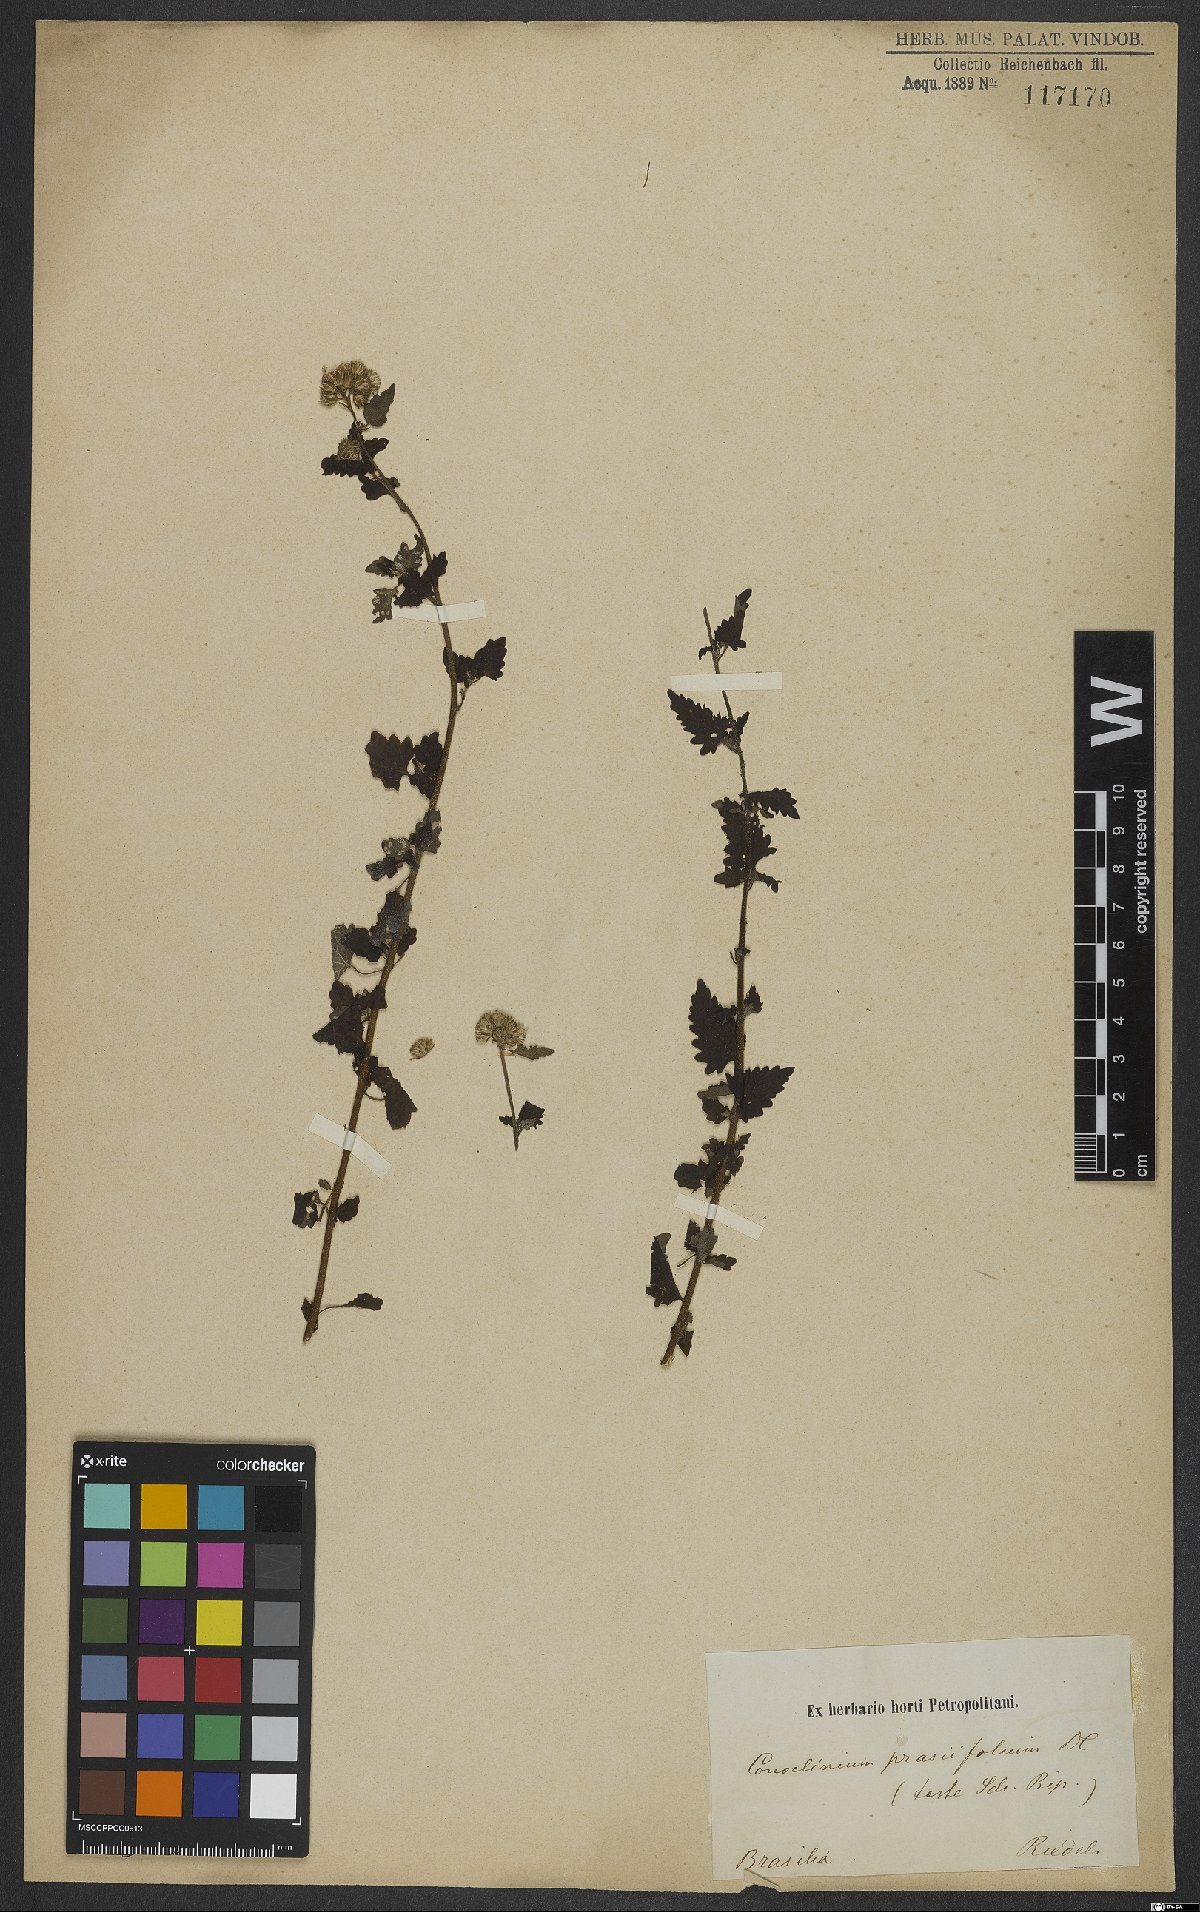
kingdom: Plantae
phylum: Tracheophyta
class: Magnoliopsida
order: Asterales
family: Asteraceae
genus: Conocliniopsis
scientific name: Conocliniopsis grossedentata
